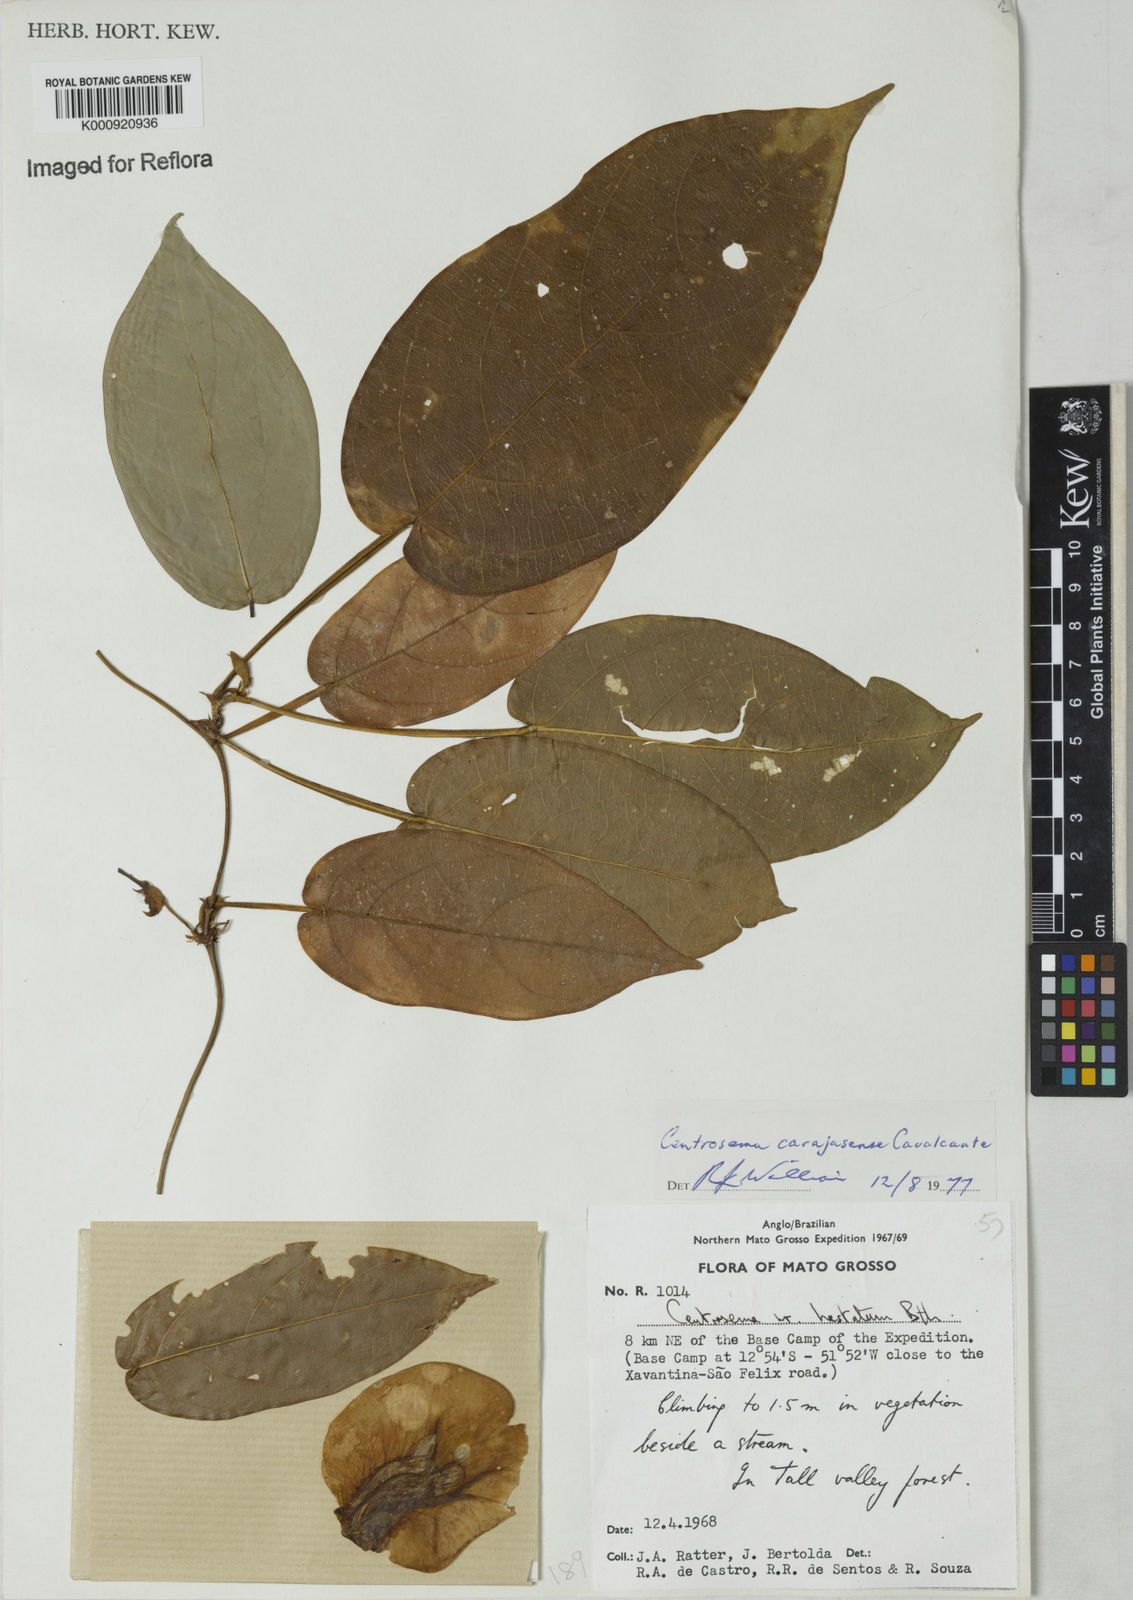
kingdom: Plantae
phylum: Tracheophyta
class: Magnoliopsida
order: Fabales
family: Fabaceae
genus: Centrosema
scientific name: Centrosema carajasense
